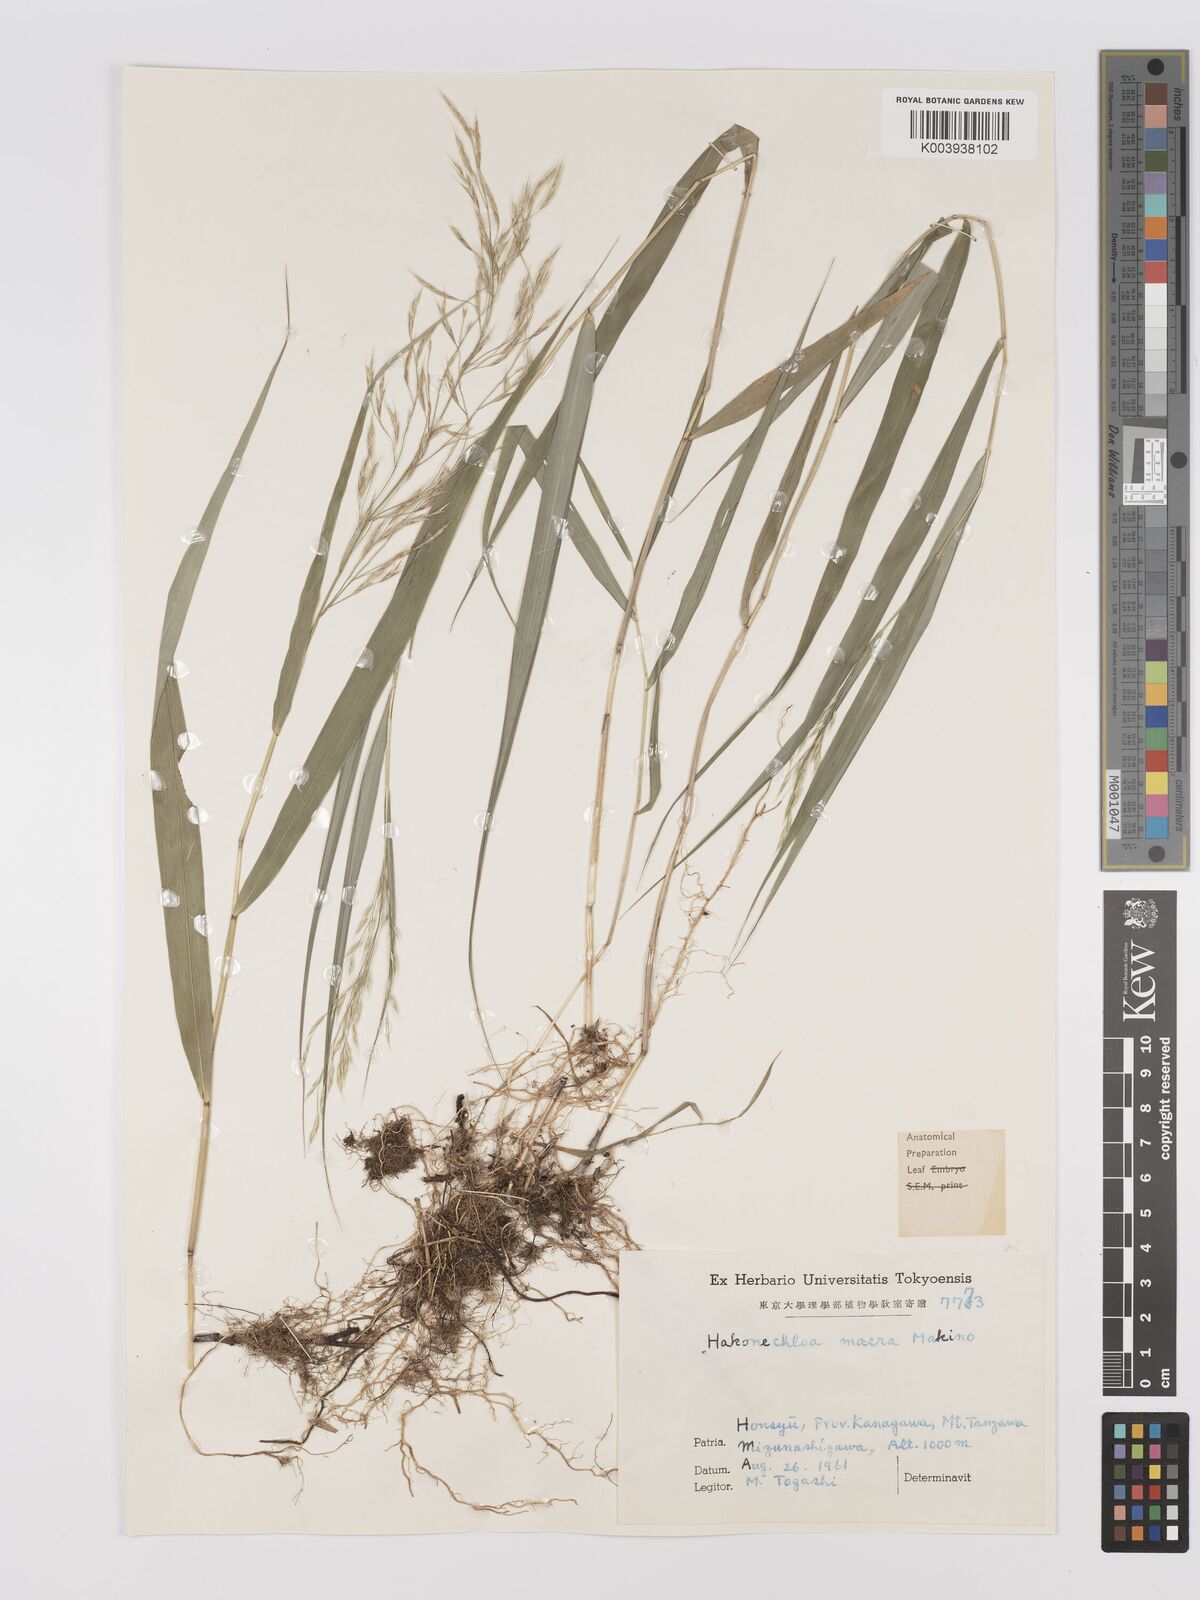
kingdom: Plantae
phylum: Tracheophyta
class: Liliopsida
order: Poales
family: Poaceae
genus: Hakonechloa
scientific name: Hakonechloa macra
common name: Hakone grass
